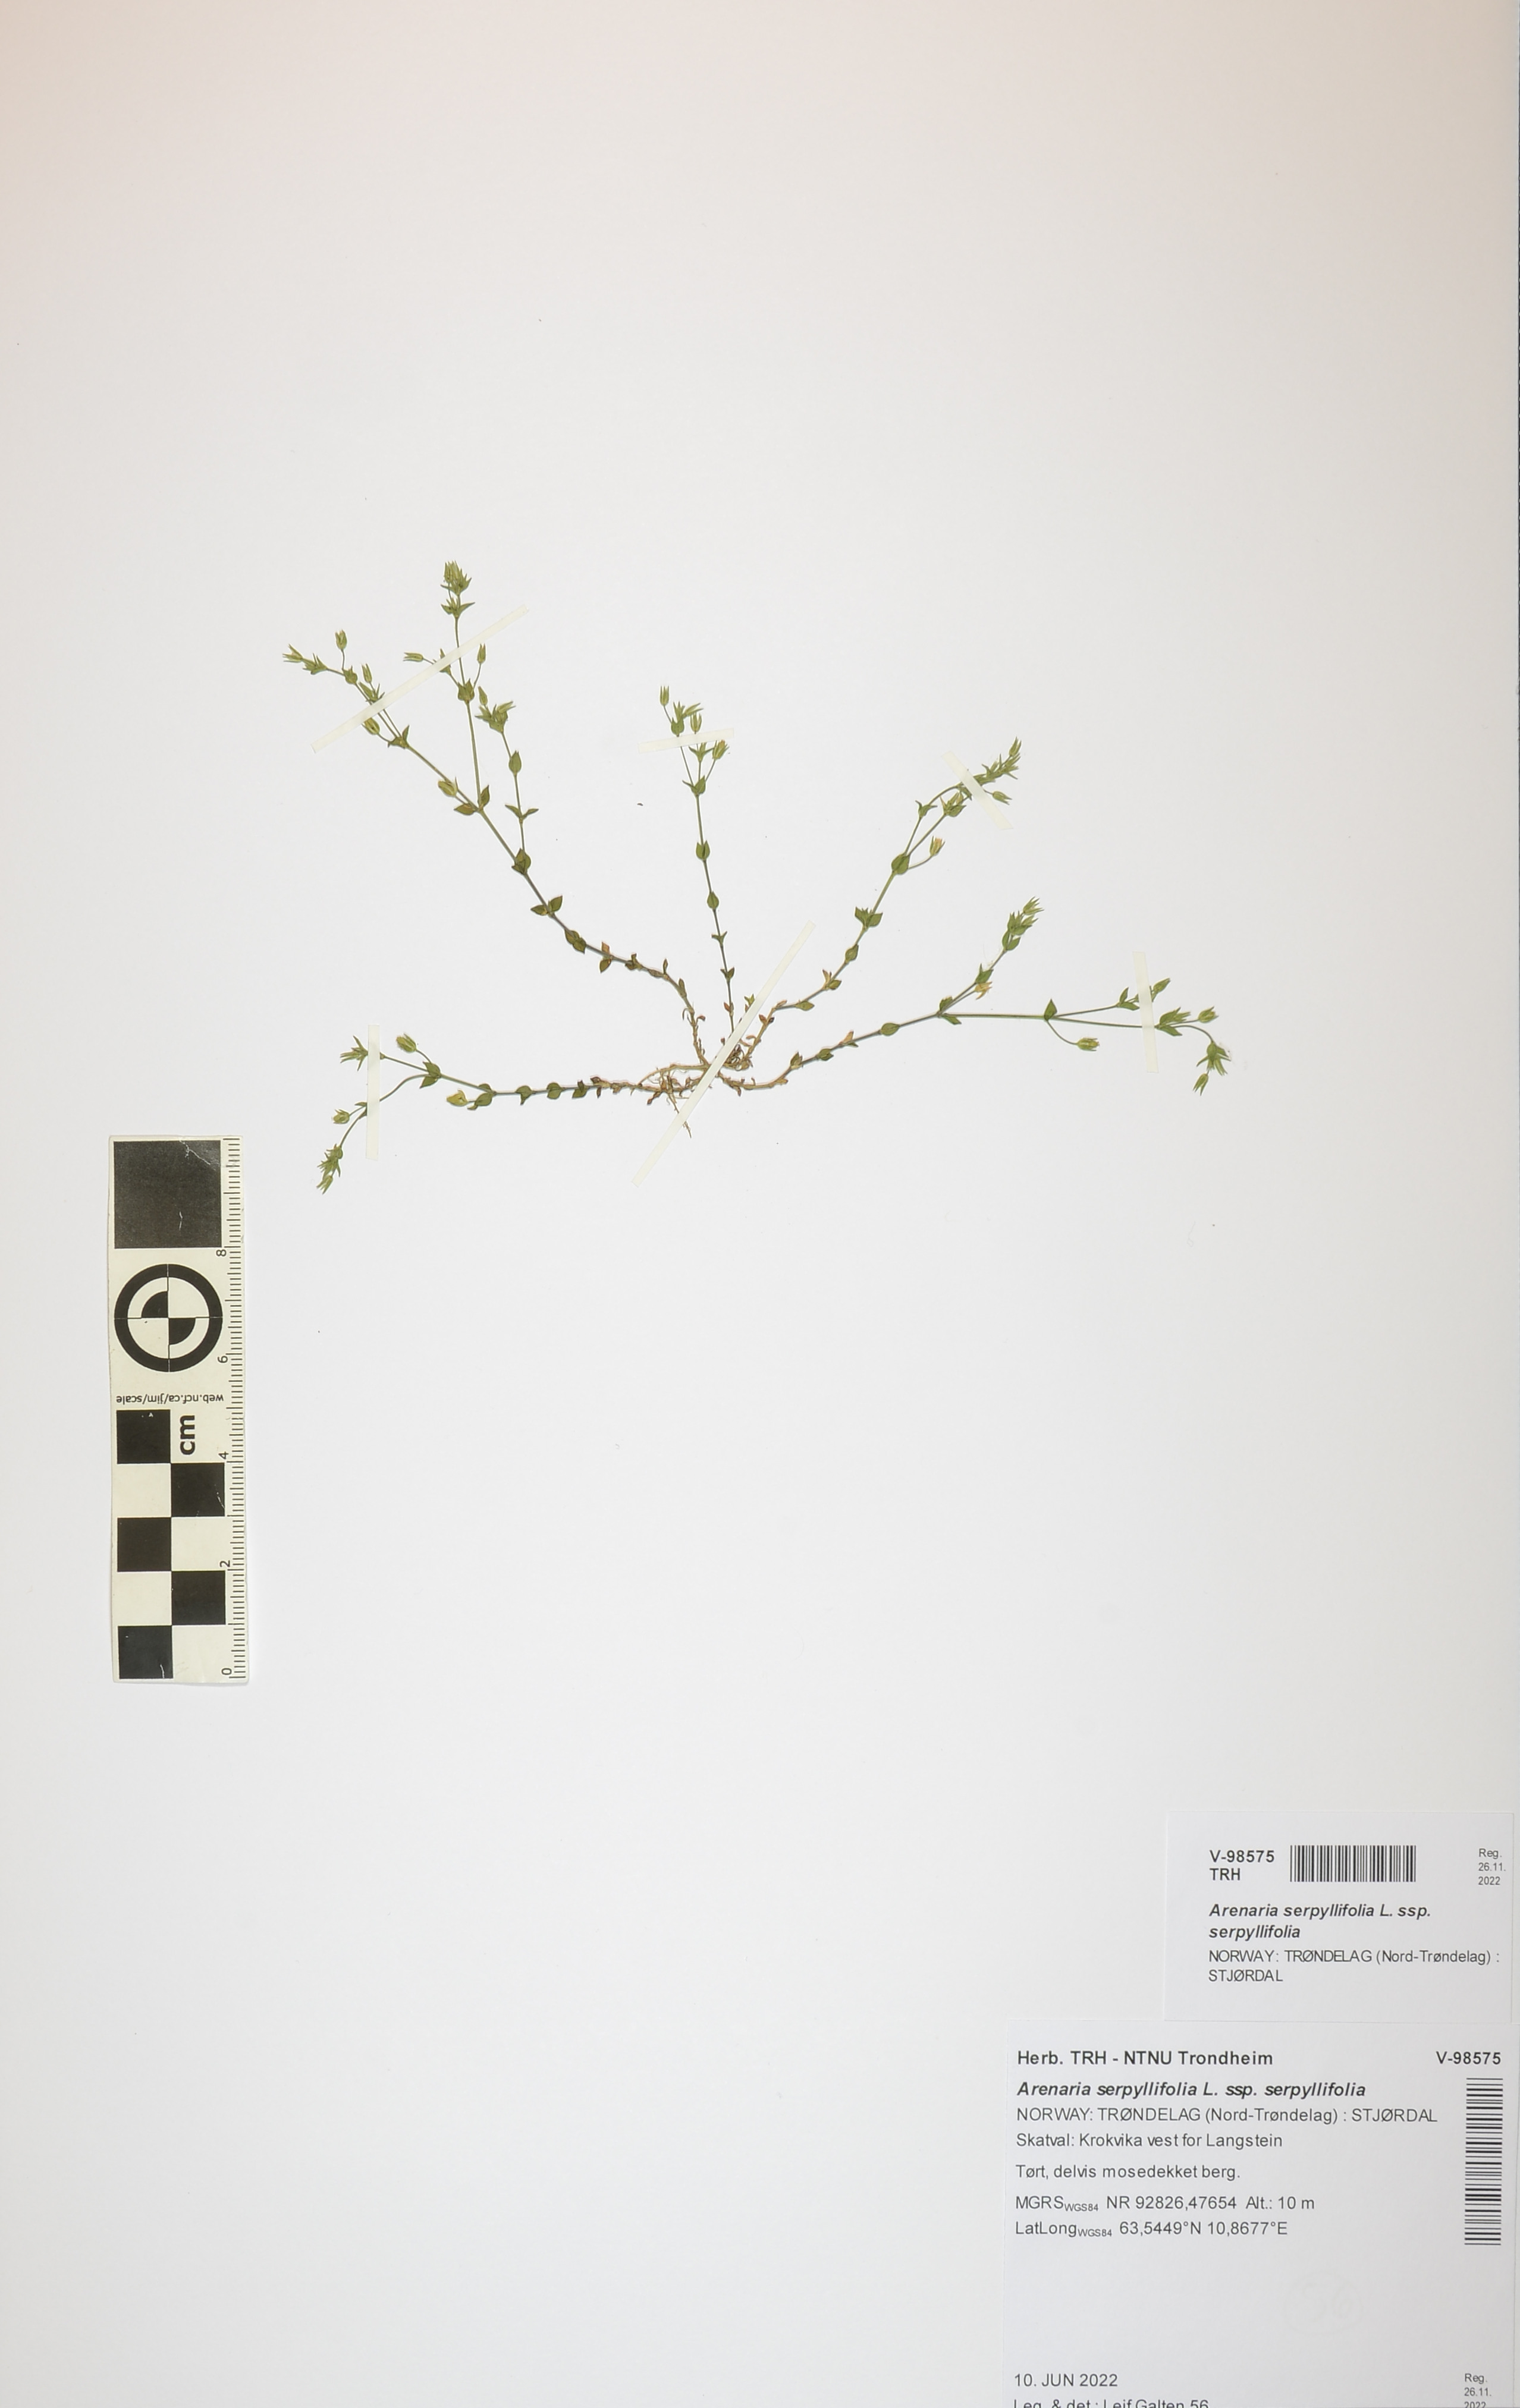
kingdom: Plantae
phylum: Tracheophyta
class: Magnoliopsida
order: Caryophyllales
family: Caryophyllaceae
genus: Arenaria
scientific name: Arenaria serpyllifolia
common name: Thyme-leaved sandwort
